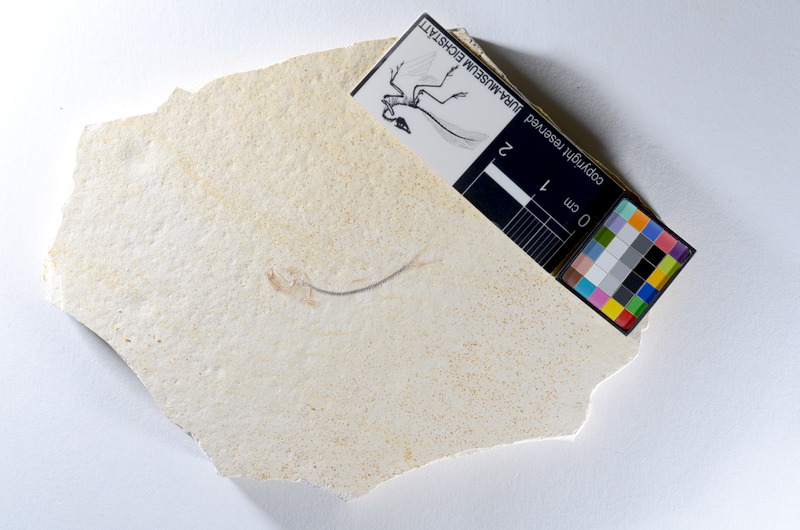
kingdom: Animalia
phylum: Chordata
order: Salmoniformes
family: Orthogonikleithridae
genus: Orthogonikleithrus
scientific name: Orthogonikleithrus hoelli
